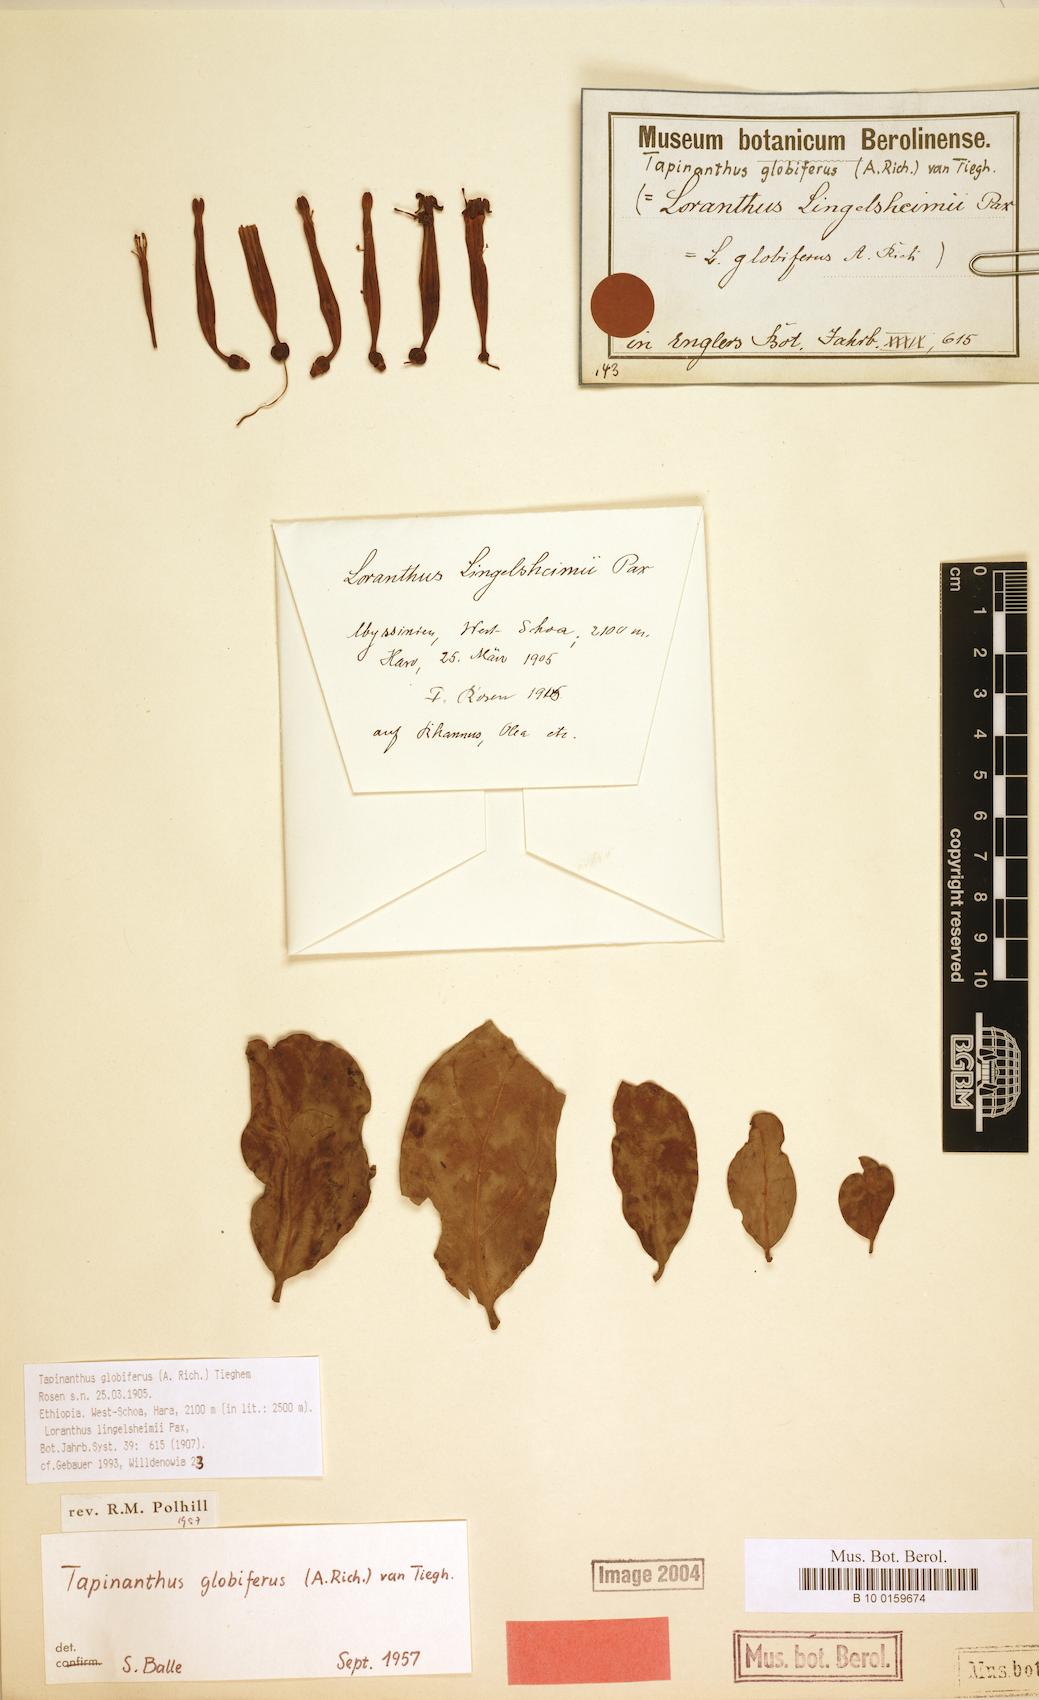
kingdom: Plantae
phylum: Tracheophyta
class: Magnoliopsida
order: Santalales
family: Loranthaceae
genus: Tapinanthus
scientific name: Tapinanthus globiferus
